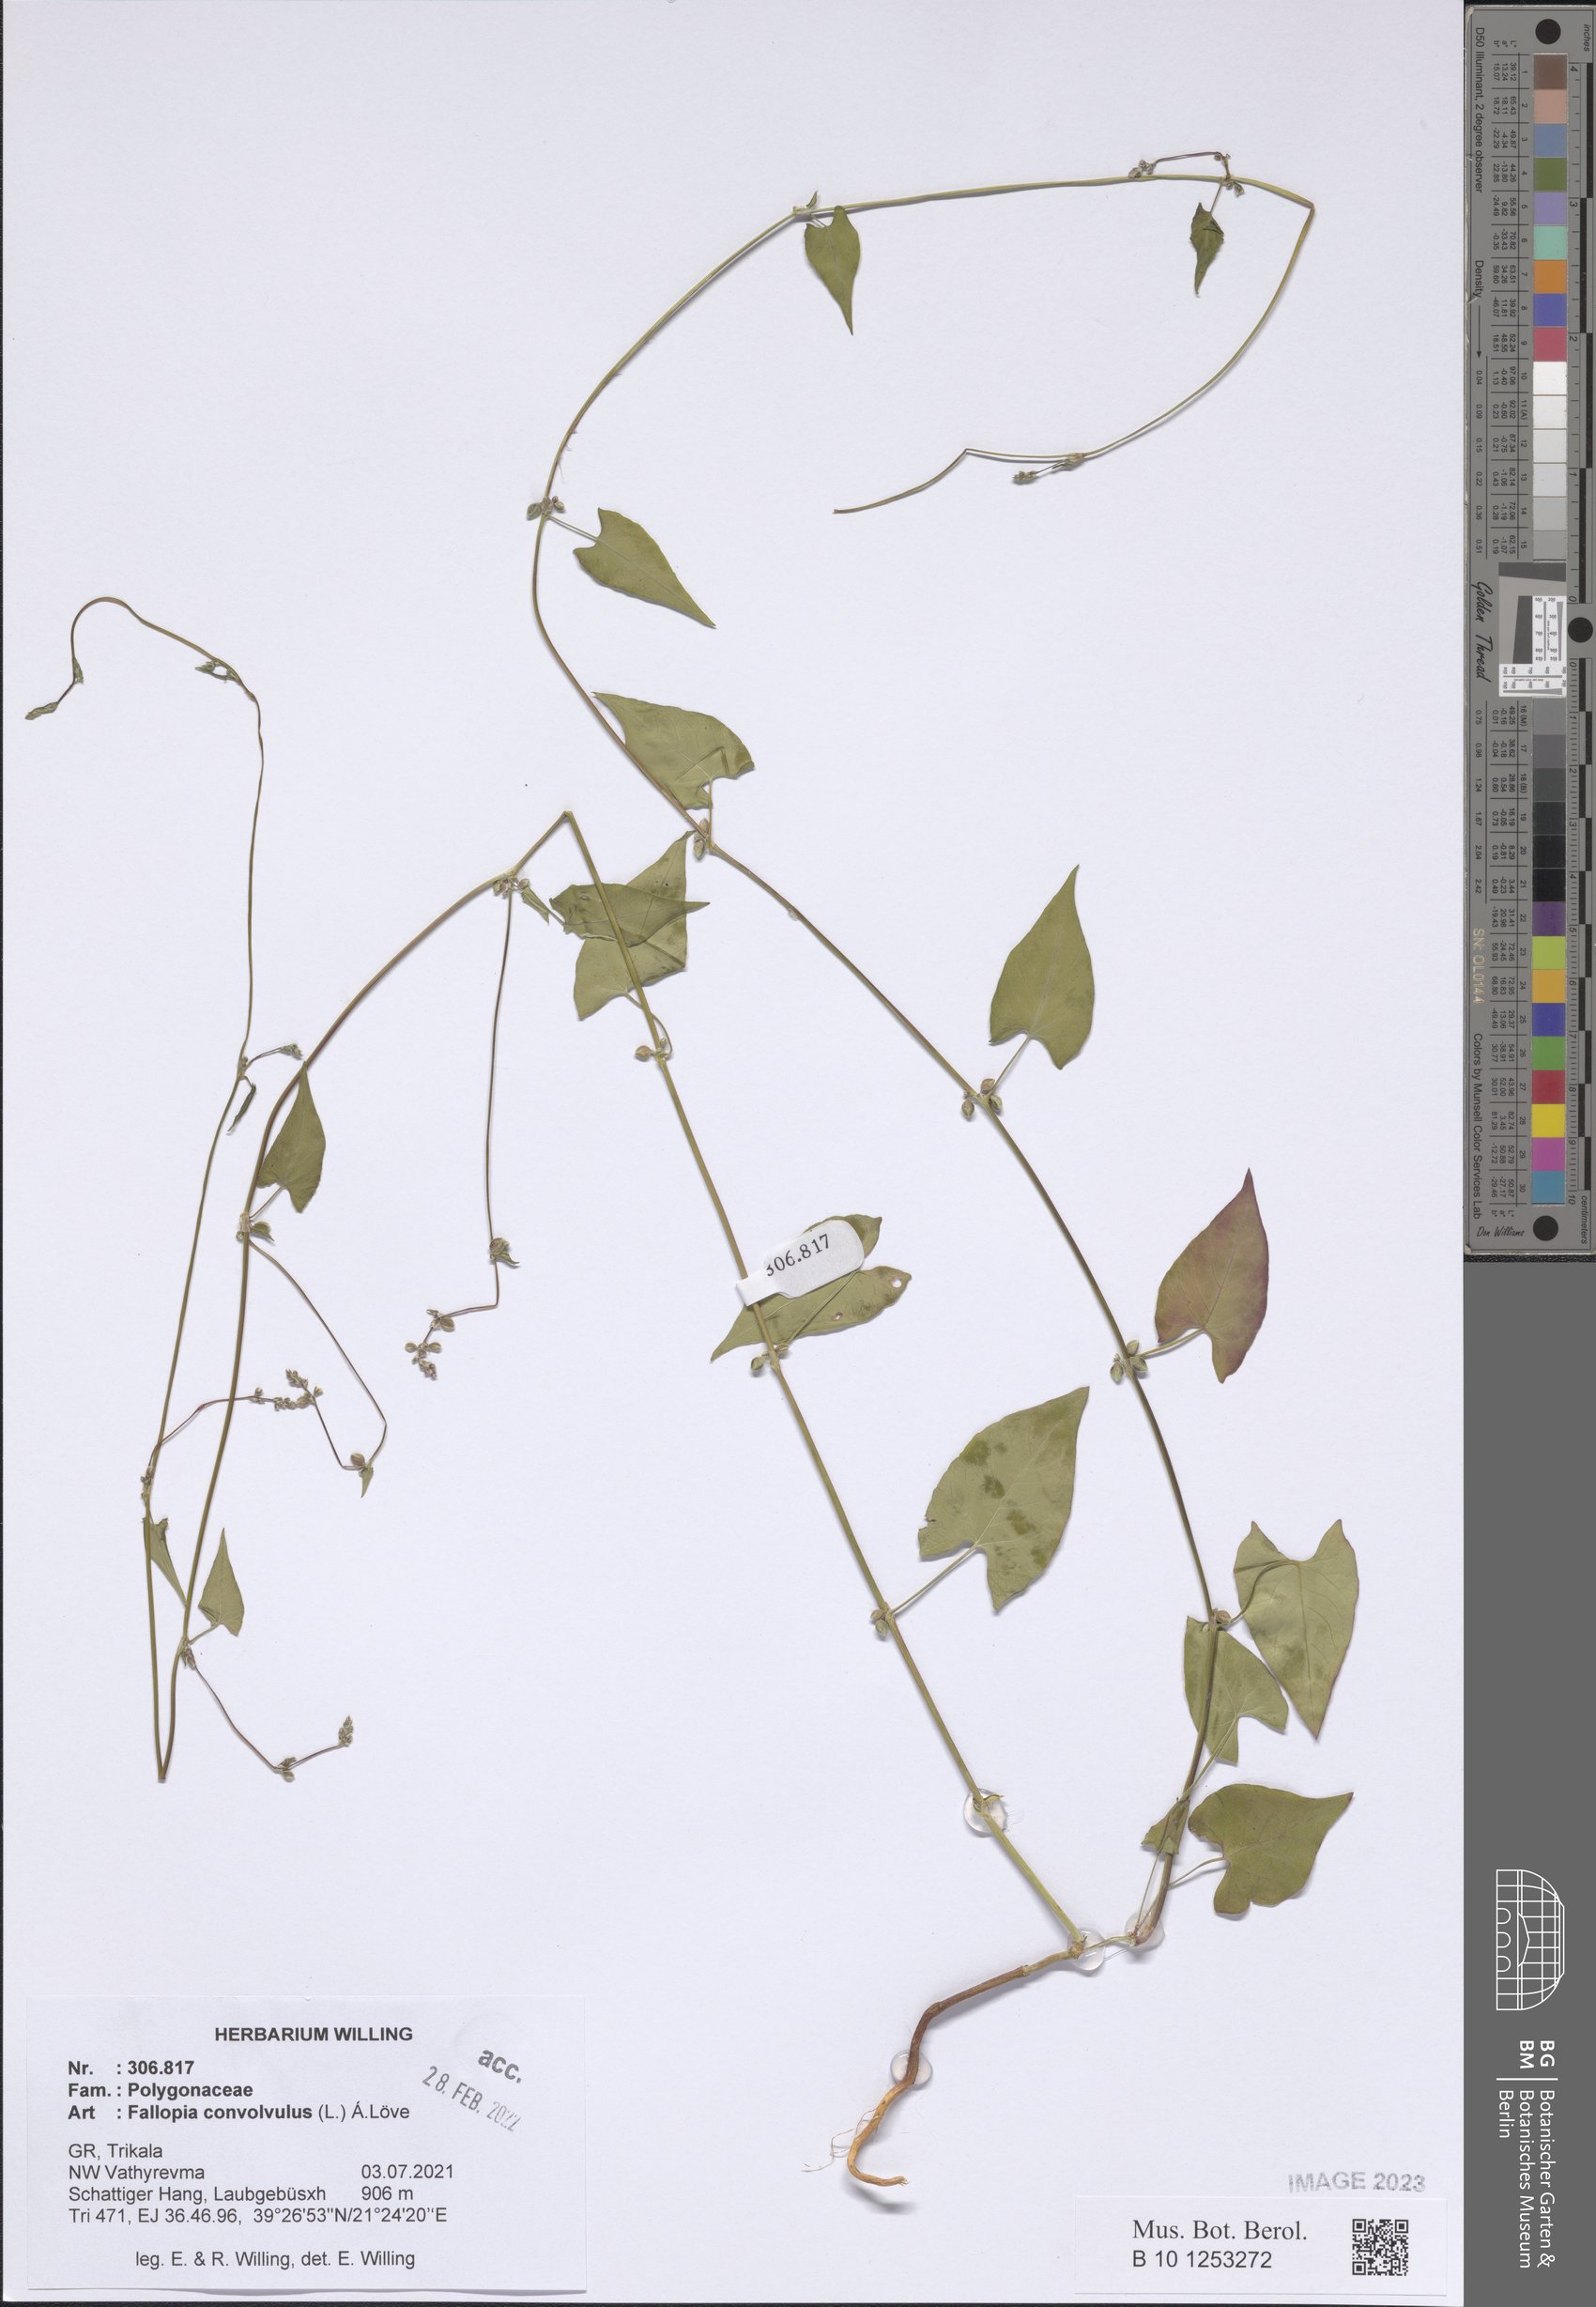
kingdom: Plantae
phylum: Tracheophyta
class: Magnoliopsida
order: Caryophyllales
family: Polygonaceae
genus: Fallopia
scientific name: Fallopia convolvulus
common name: Black bindweed
